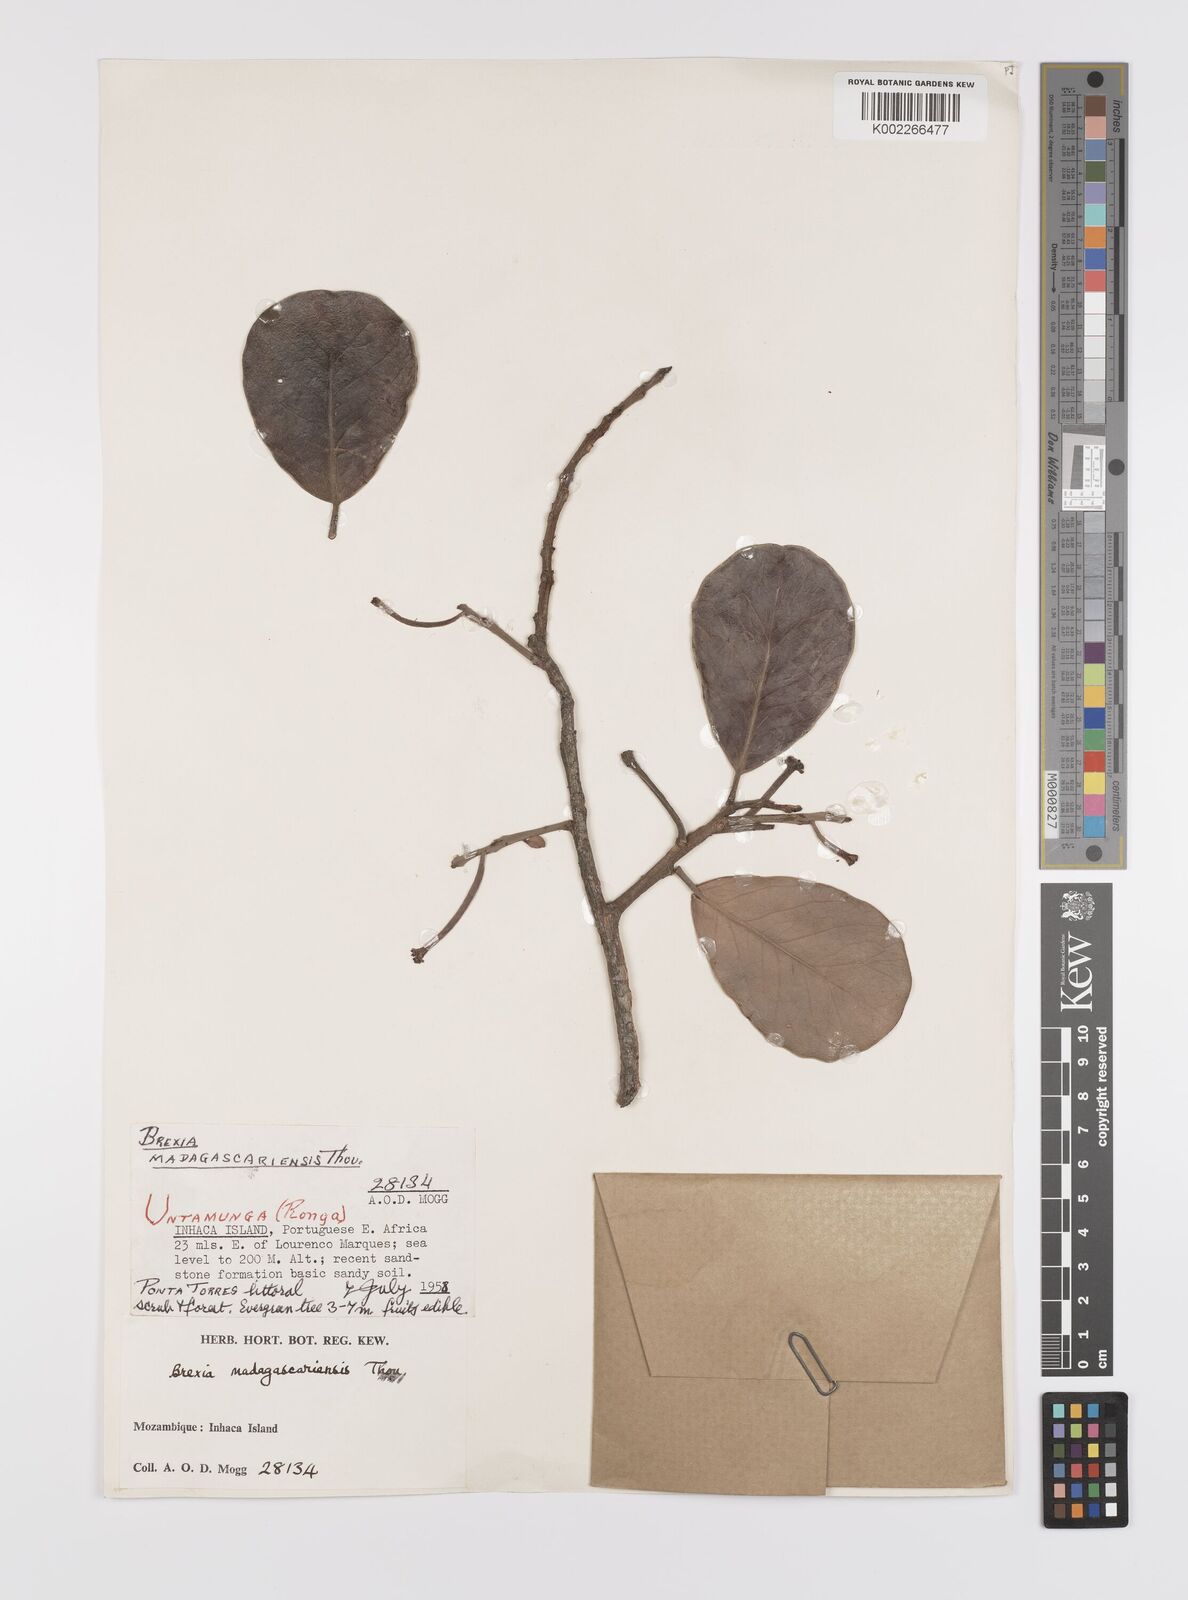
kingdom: Plantae
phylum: Tracheophyta
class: Magnoliopsida
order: Celastrales
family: Celastraceae
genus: Brexia
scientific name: Brexia madagascariensis
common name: Brexia
